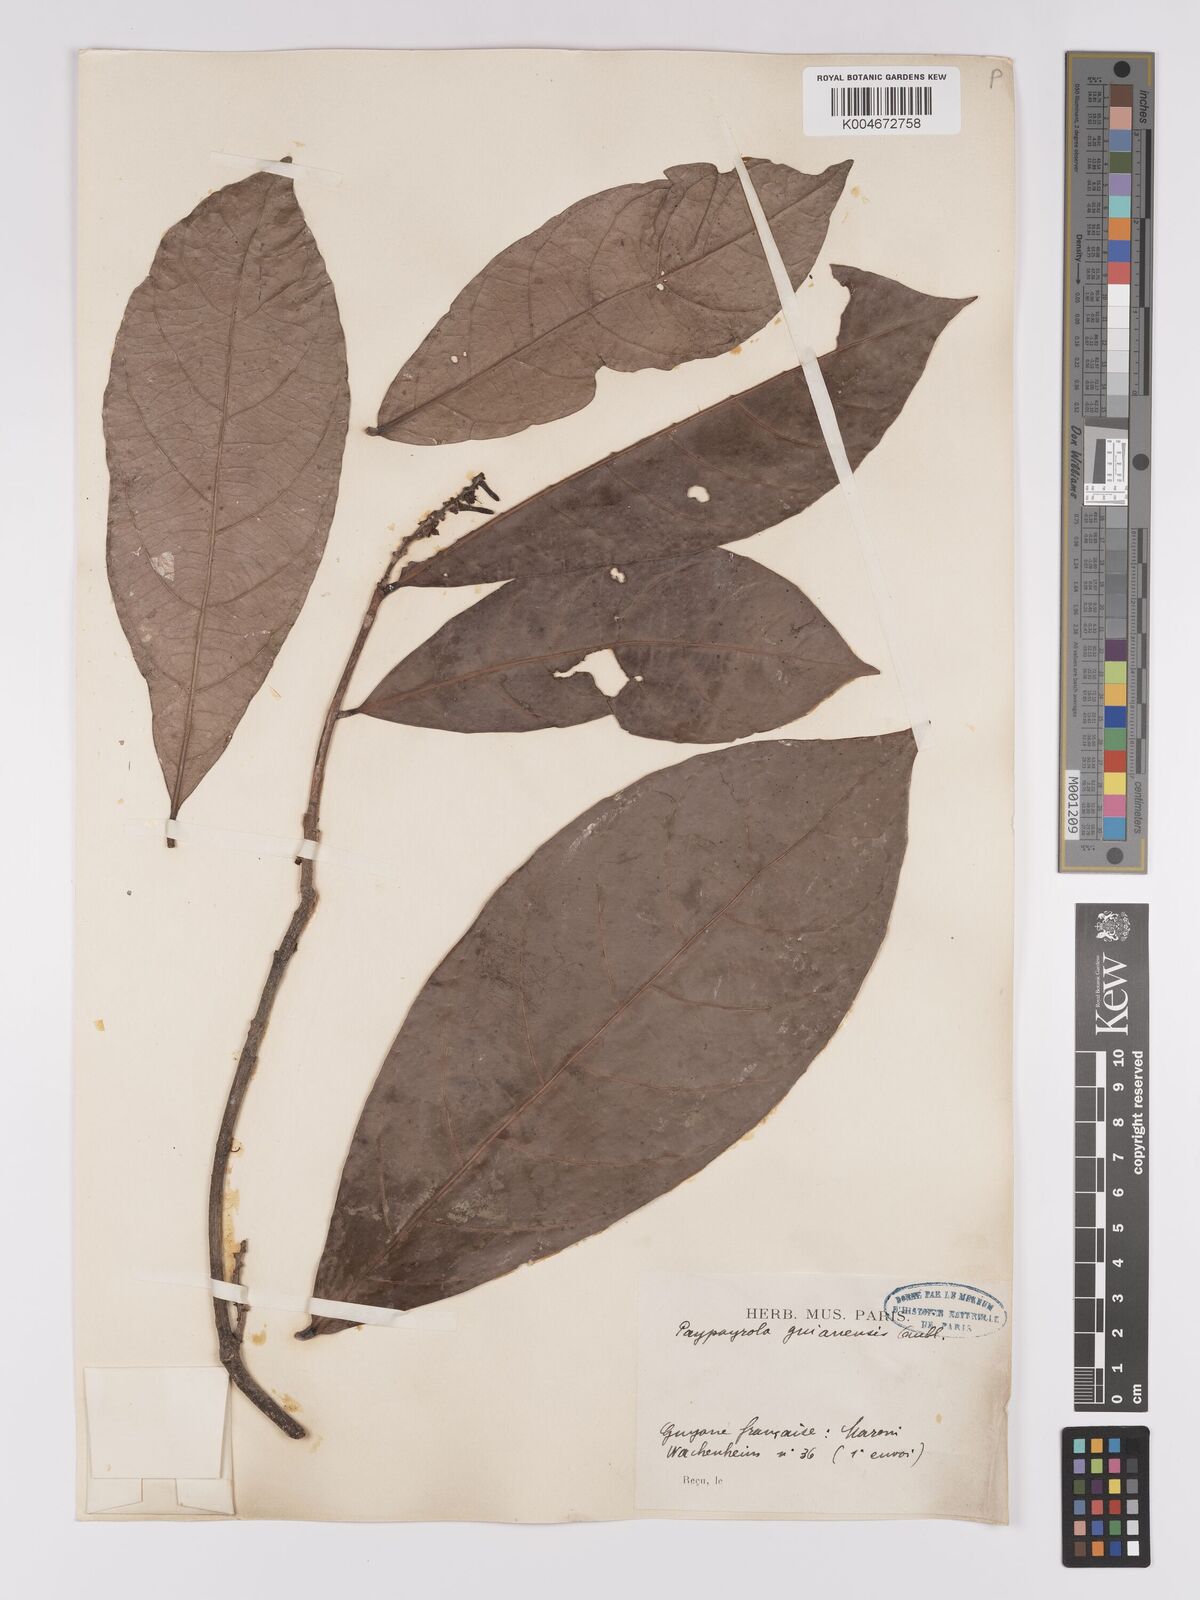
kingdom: Plantae
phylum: Tracheophyta
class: Magnoliopsida
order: Malpighiales
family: Violaceae
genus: Paypayrola
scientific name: Paypayrola guianensis
